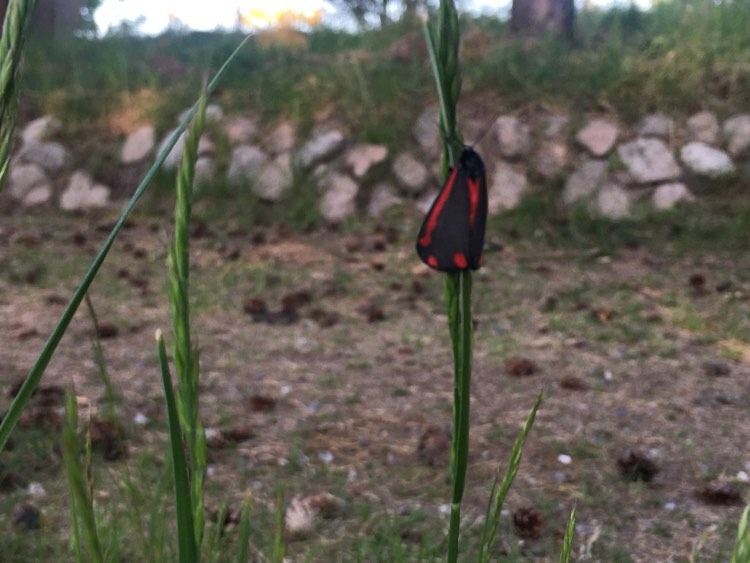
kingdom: Animalia
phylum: Arthropoda
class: Insecta
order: Lepidoptera
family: Erebidae
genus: Tyria
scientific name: Tyria jacobaeae
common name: Blodplet
